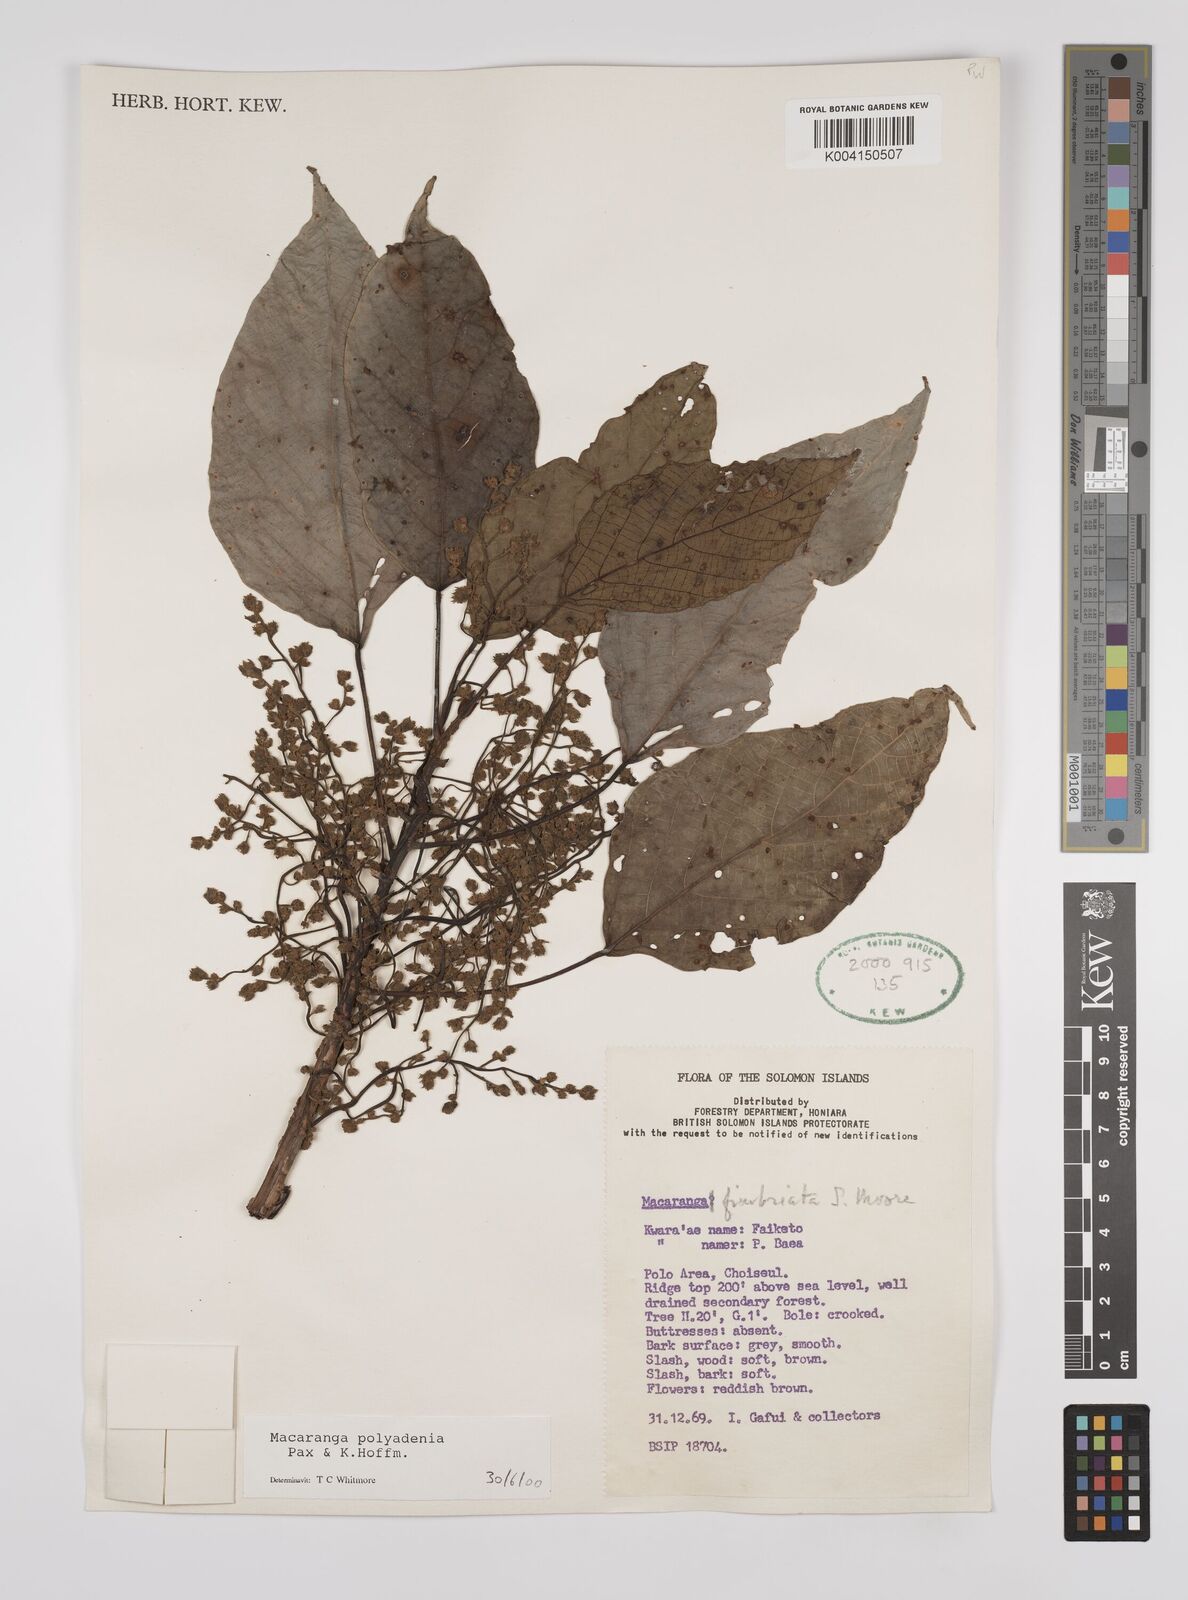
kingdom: Plantae
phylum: Tracheophyta
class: Magnoliopsida
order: Malpighiales
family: Euphorbiaceae
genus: Macaranga
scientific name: Macaranga polyadenia
